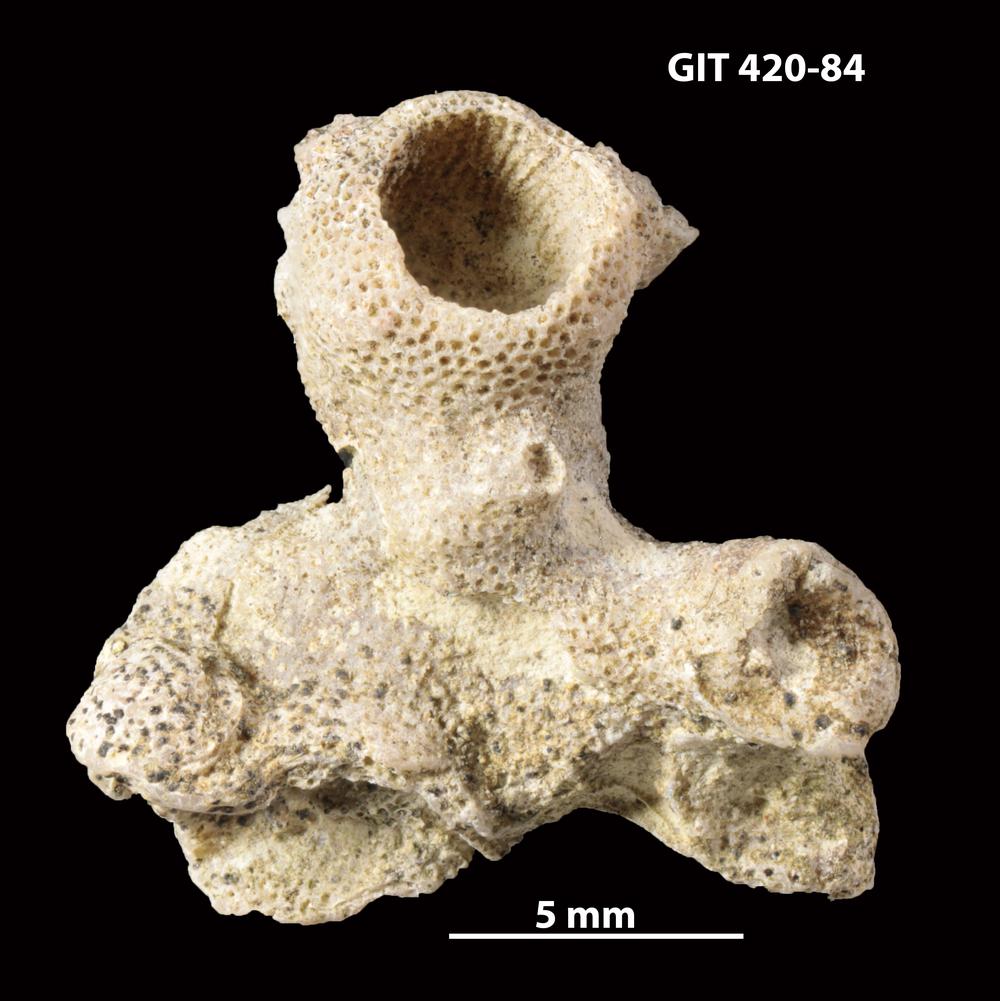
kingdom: Animalia
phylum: Bryozoa
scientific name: Bryozoa
